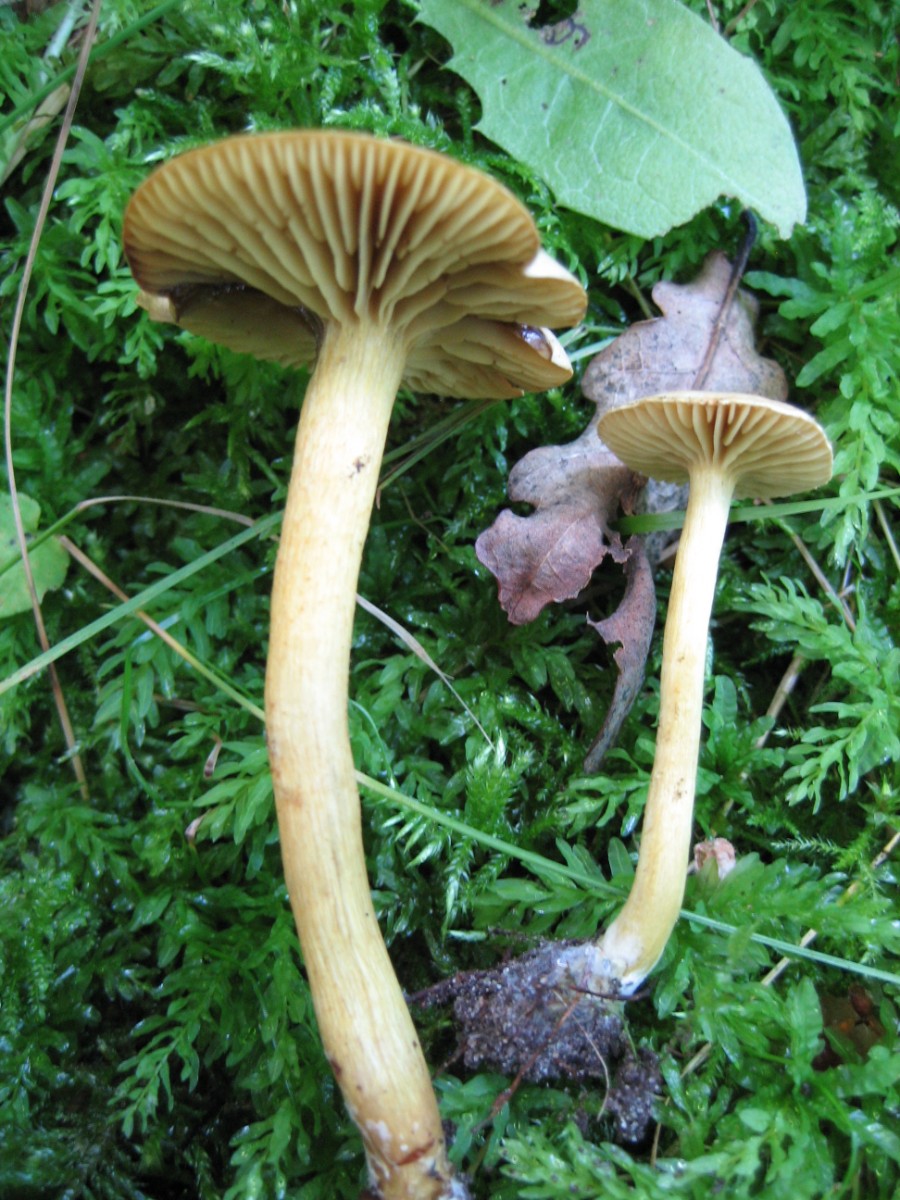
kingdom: Fungi
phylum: Basidiomycota
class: Agaricomycetes
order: Agaricales
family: Tricholomataceae
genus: Tricholoma
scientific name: Tricholoma sulphureum
